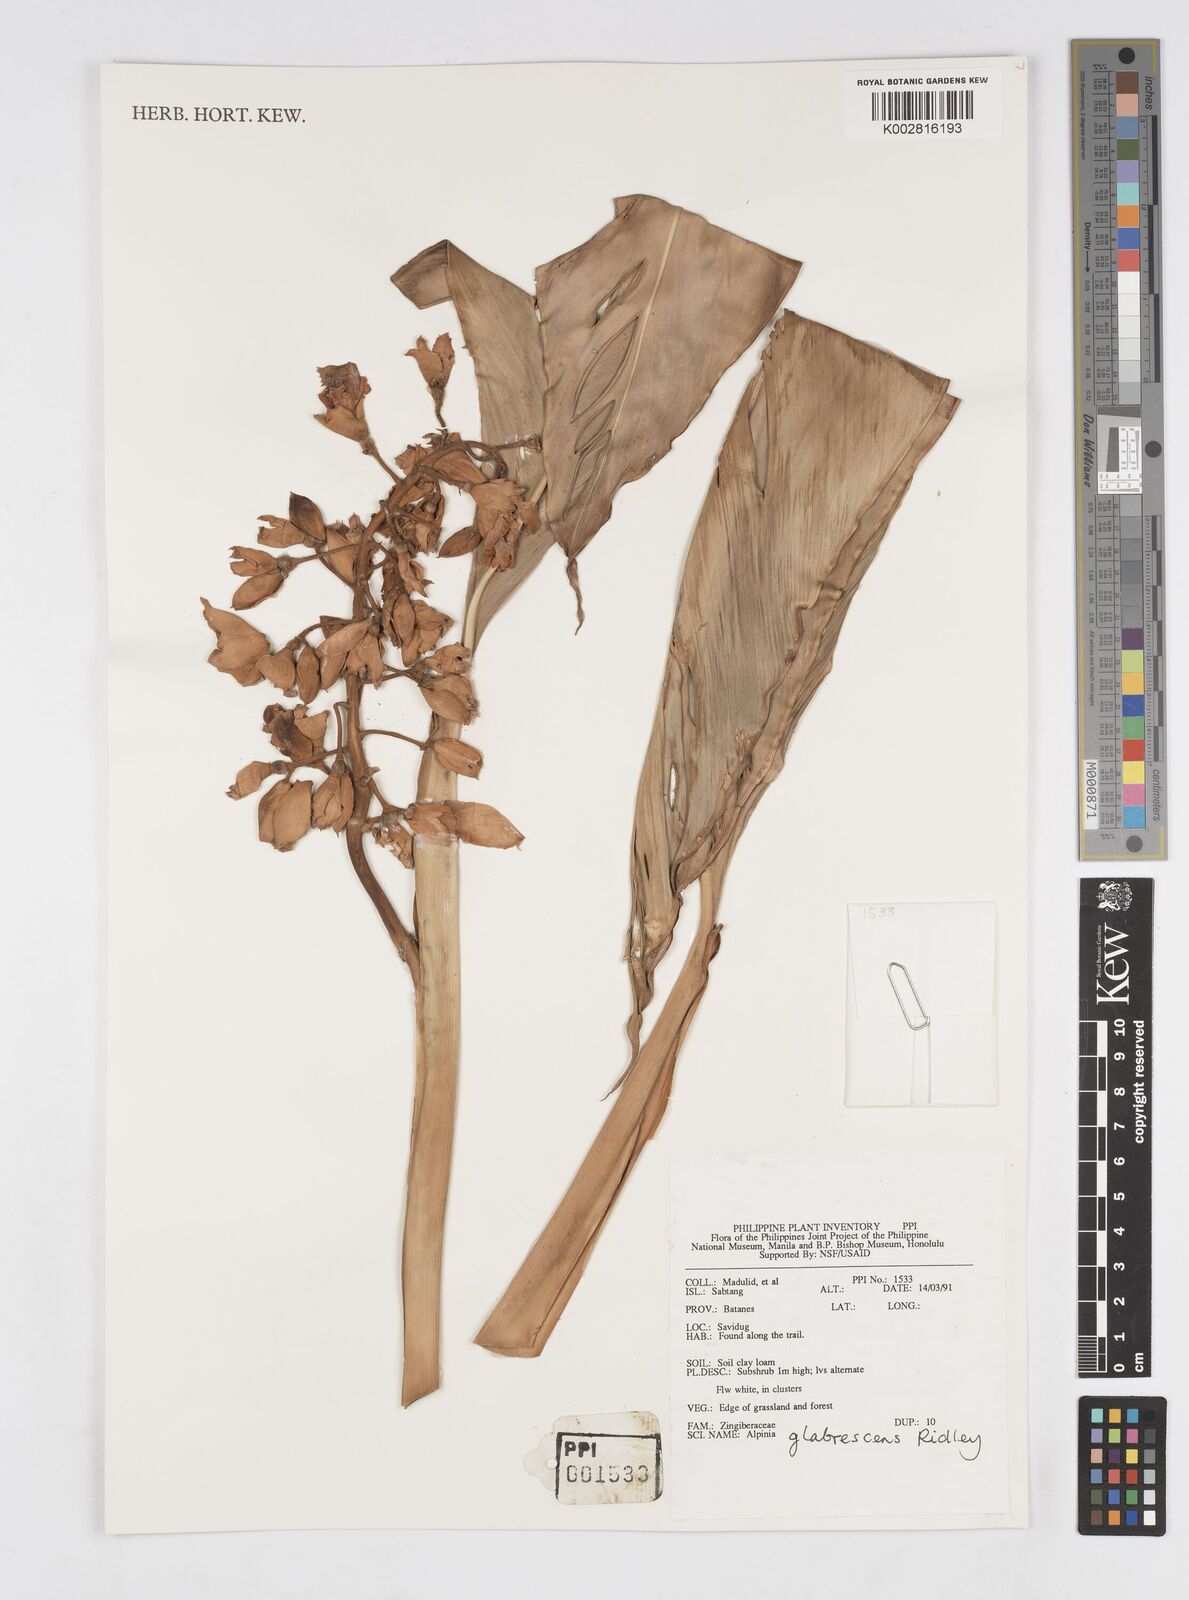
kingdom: Plantae
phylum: Tracheophyta
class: Liliopsida
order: Zingiberales
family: Zingiberaceae
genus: Alpinia
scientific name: Alpinia glabrescens
